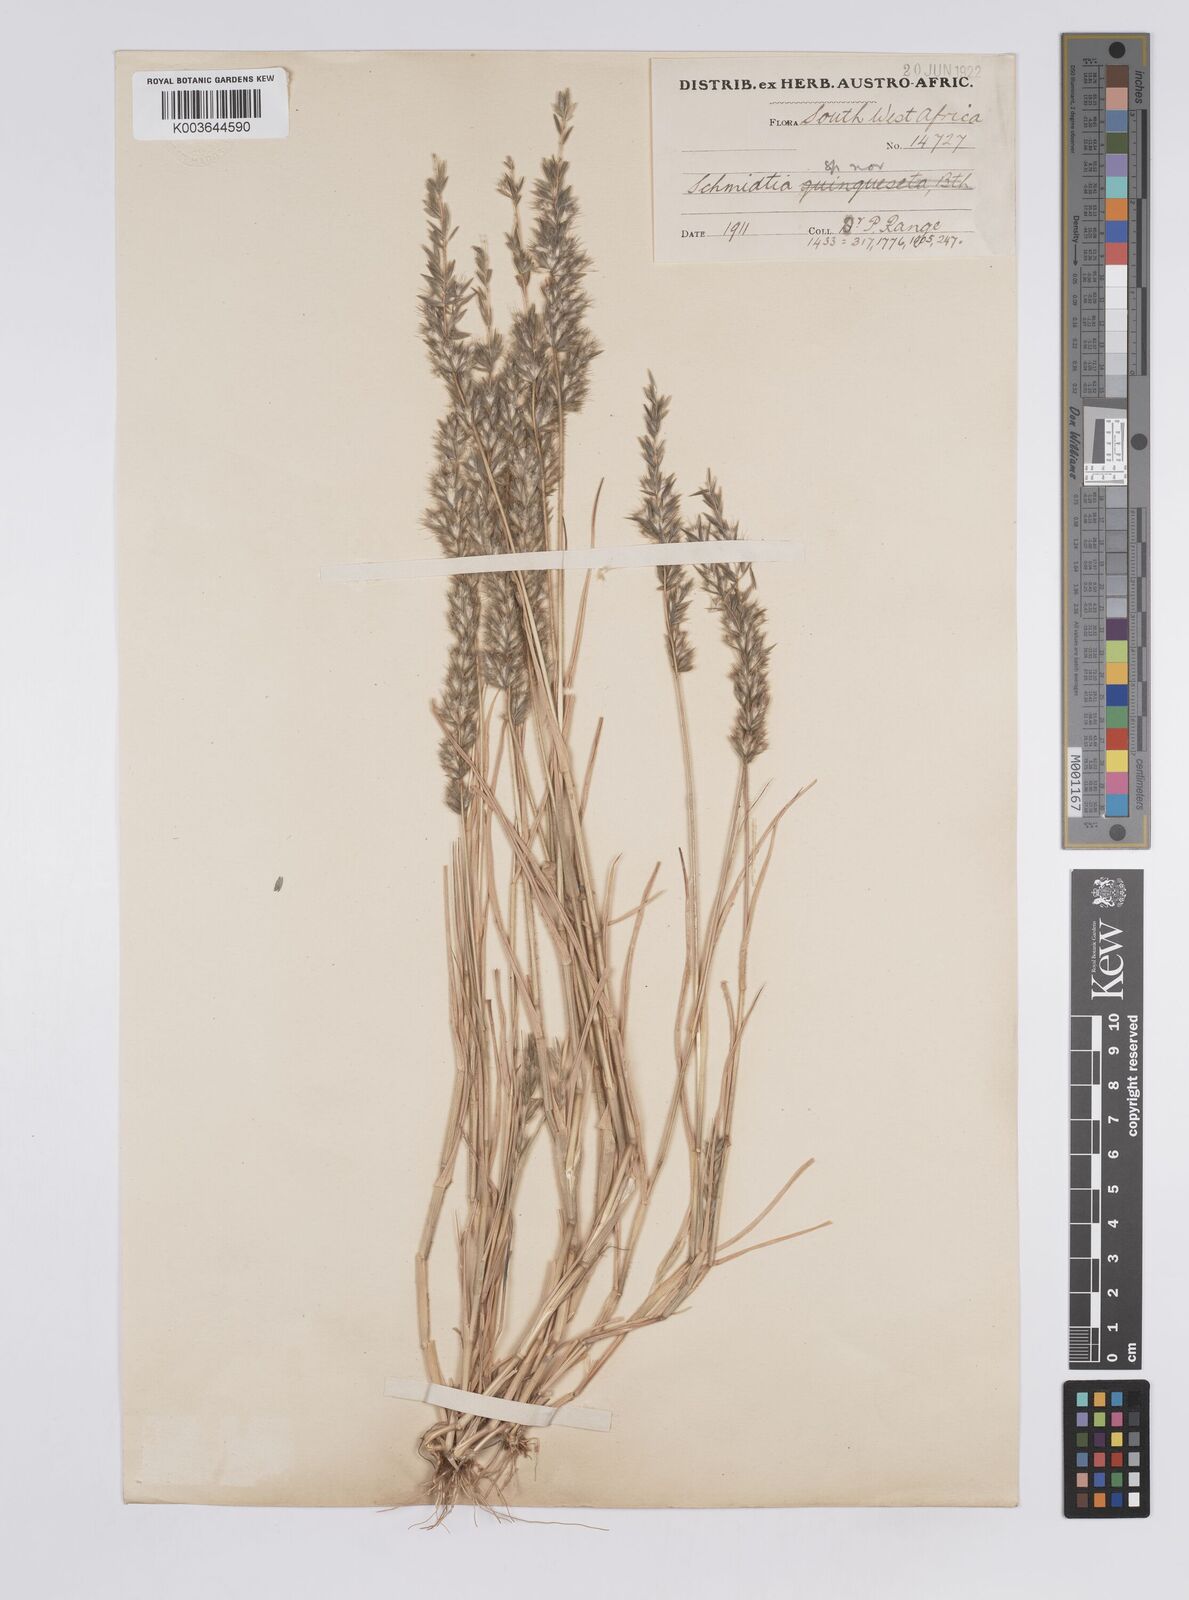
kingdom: Plantae
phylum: Tracheophyta
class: Liliopsida
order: Poales
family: Poaceae
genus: Schmidtia
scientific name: Schmidtia kalahariensis
